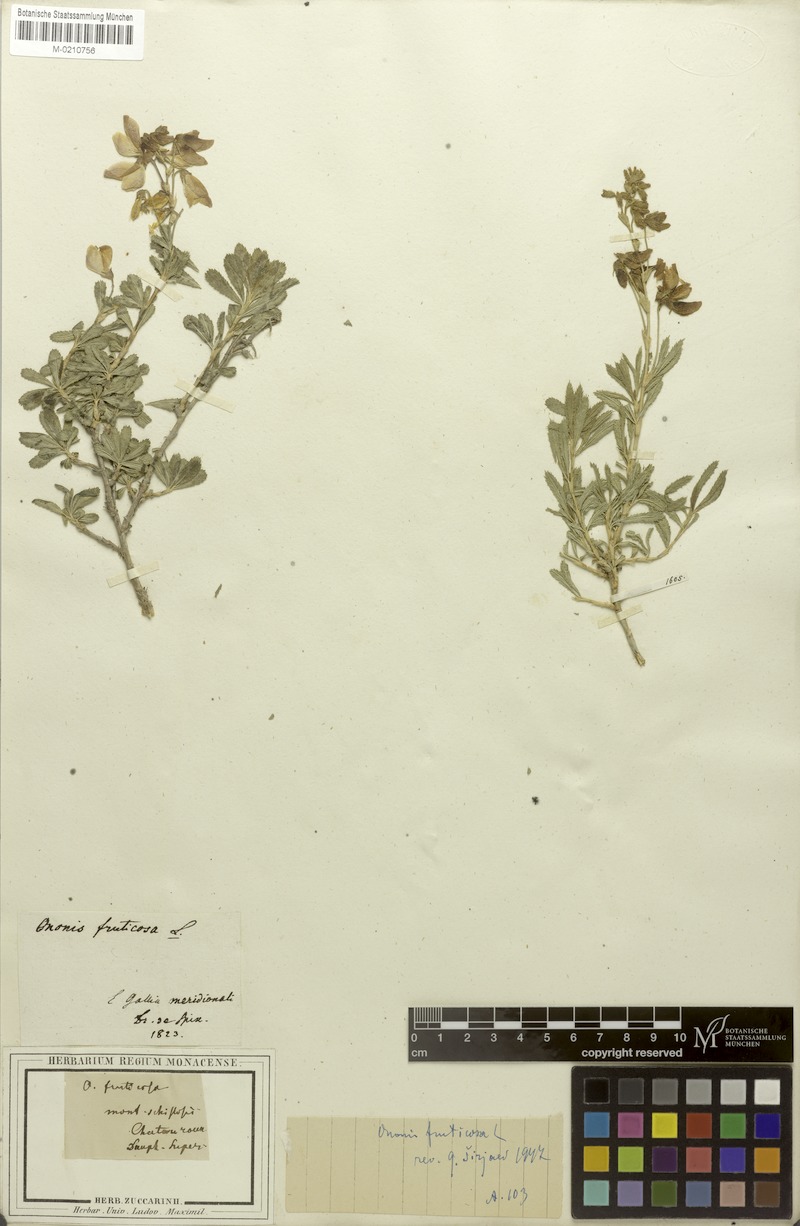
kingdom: Plantae
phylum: Tracheophyta
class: Magnoliopsida
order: Fabales
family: Fabaceae
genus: Ononis
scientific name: Ononis fruticosa
